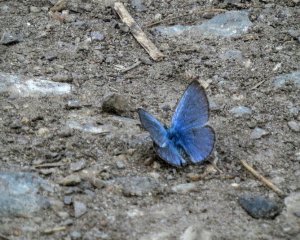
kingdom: Animalia
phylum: Arthropoda
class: Insecta
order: Lepidoptera
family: Lycaenidae
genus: Glaucopsyche
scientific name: Glaucopsyche lygdamus
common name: Silvery Blue
